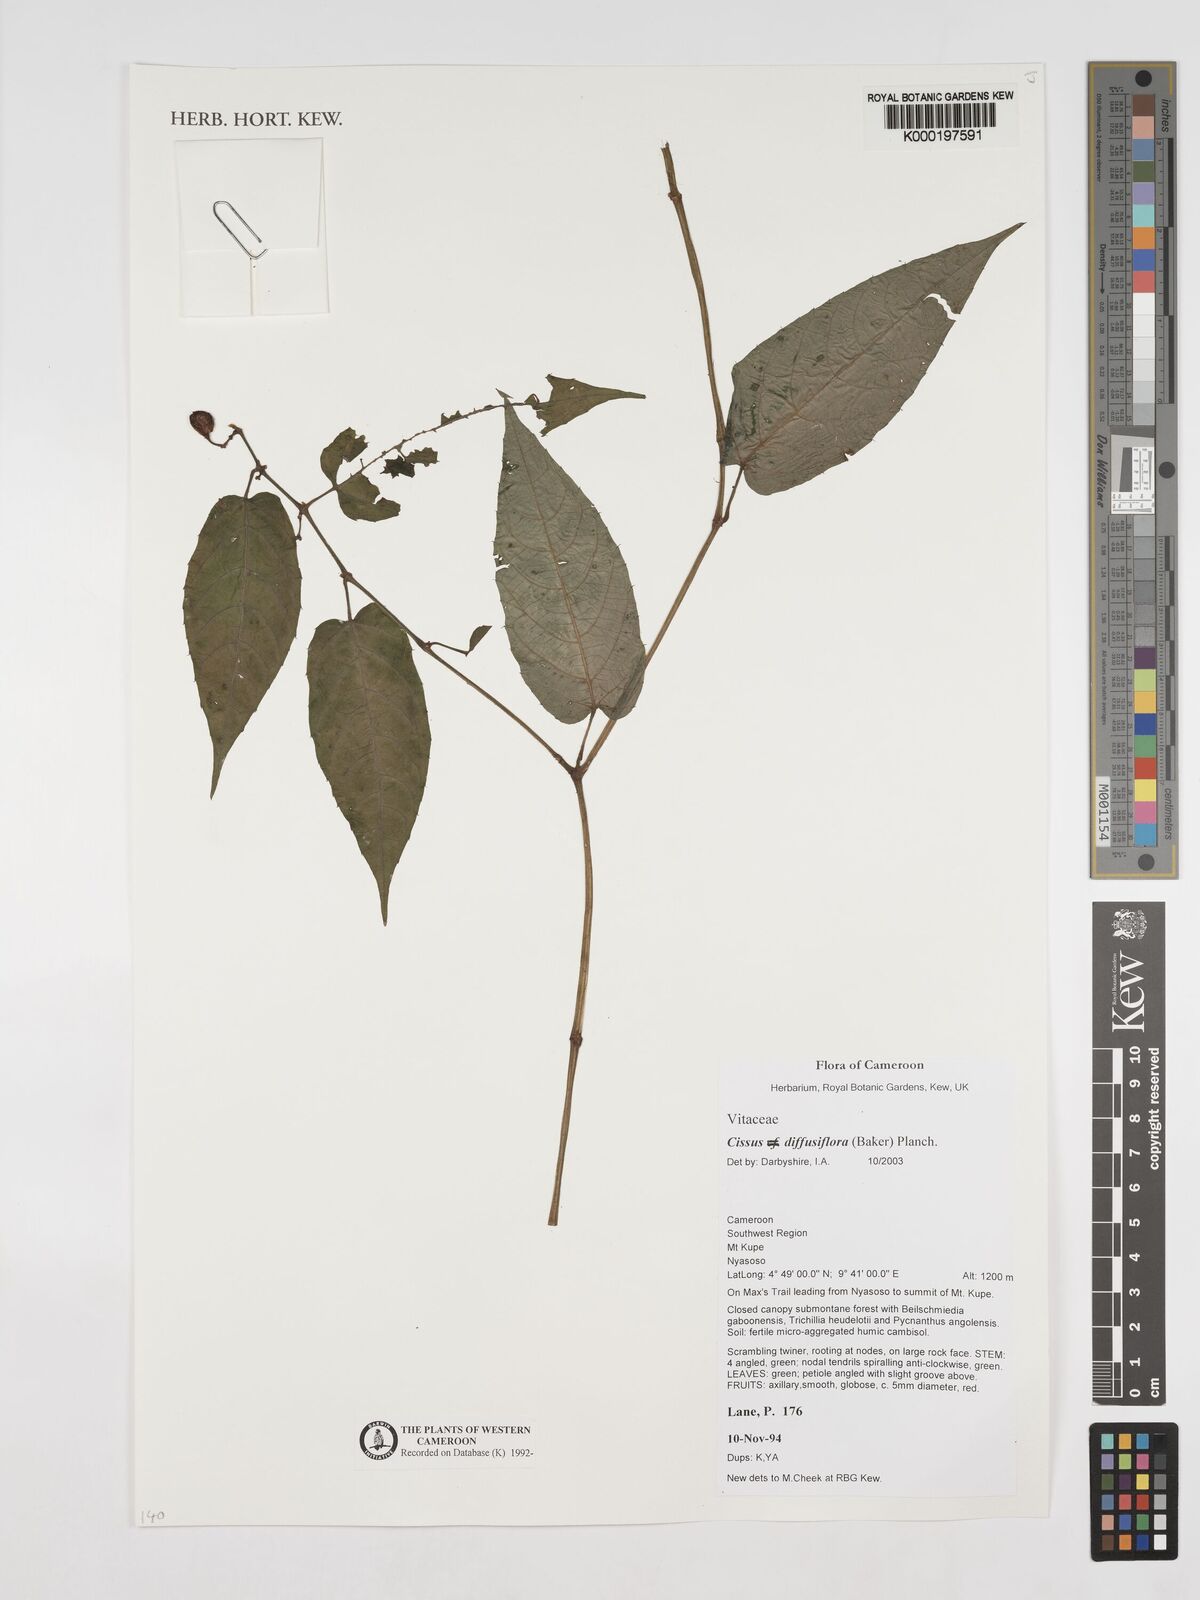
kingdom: Plantae
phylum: Tracheophyta
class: Magnoliopsida
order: Vitales
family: Vitaceae
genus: Cissus
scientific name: Cissus diffusiflora
